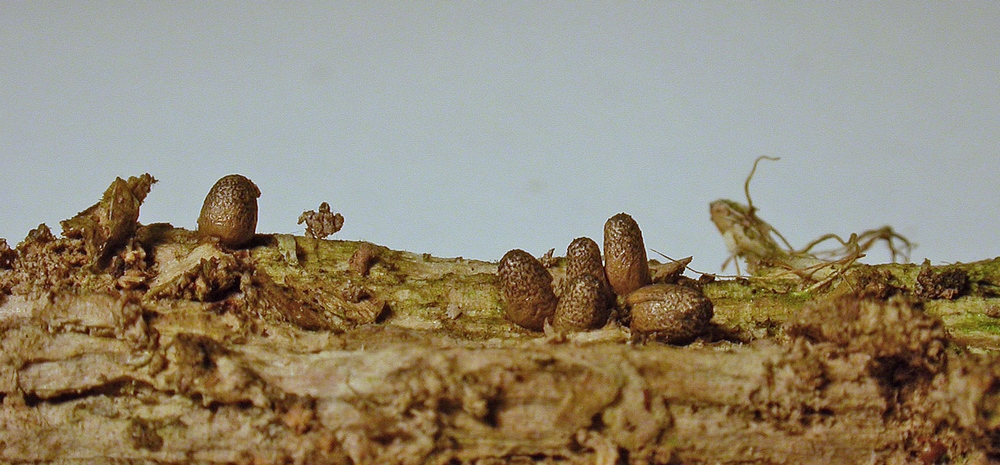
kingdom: Protozoa
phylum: Mycetozoa
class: Myxomycetes
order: Cribrariales
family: Tubiferaceae
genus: Lycogala
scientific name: Lycogala conicum
